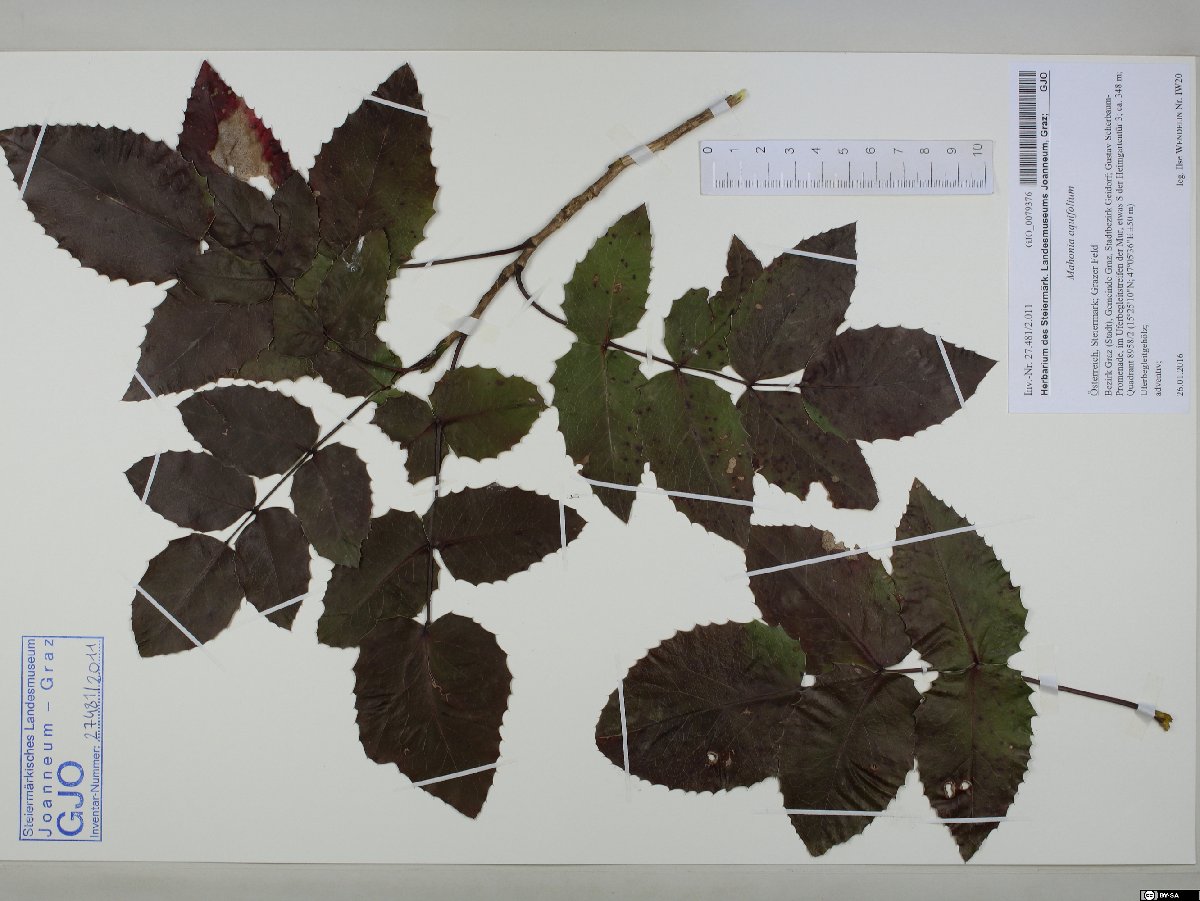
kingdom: Plantae
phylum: Tracheophyta
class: Magnoliopsida
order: Ranunculales
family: Berberidaceae
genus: Mahonia
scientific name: Mahonia aquifolium
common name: Oregon-grape
